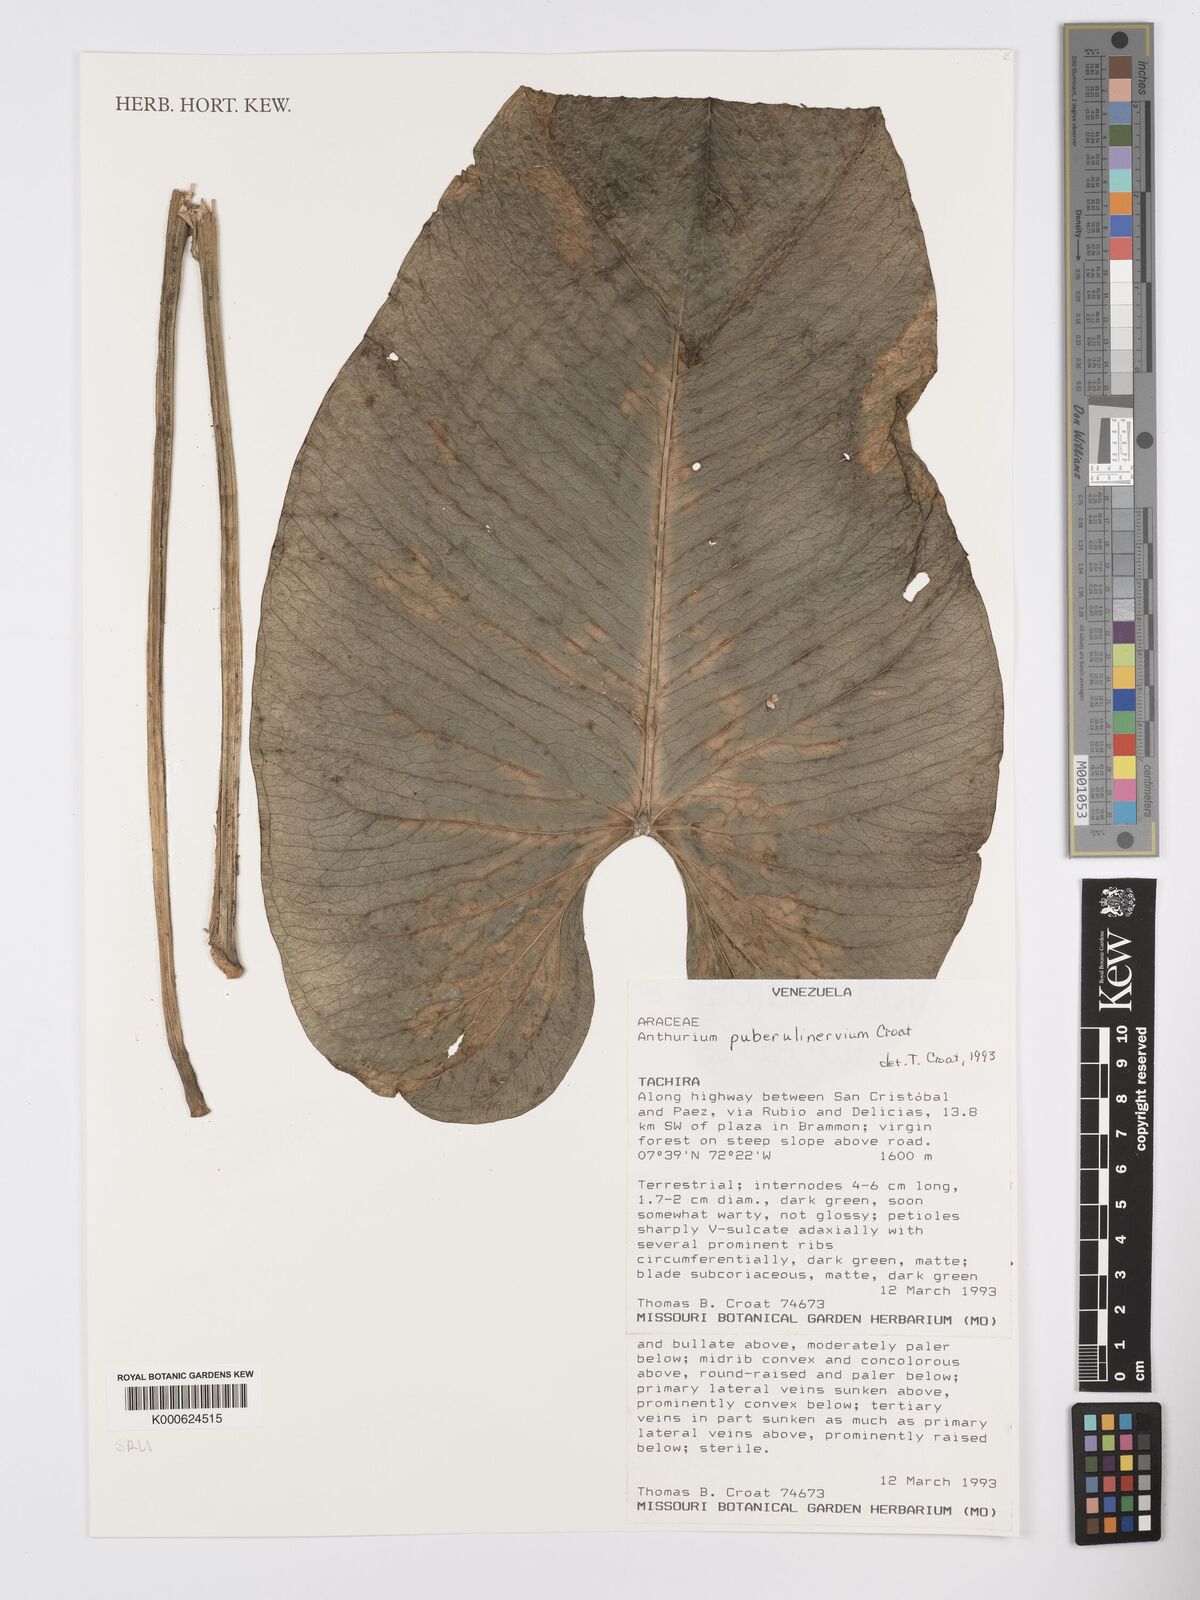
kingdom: Plantae
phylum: Tracheophyta
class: Liliopsida
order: Alismatales
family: Araceae
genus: Anthurium
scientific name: Anthurium puberulinervium
